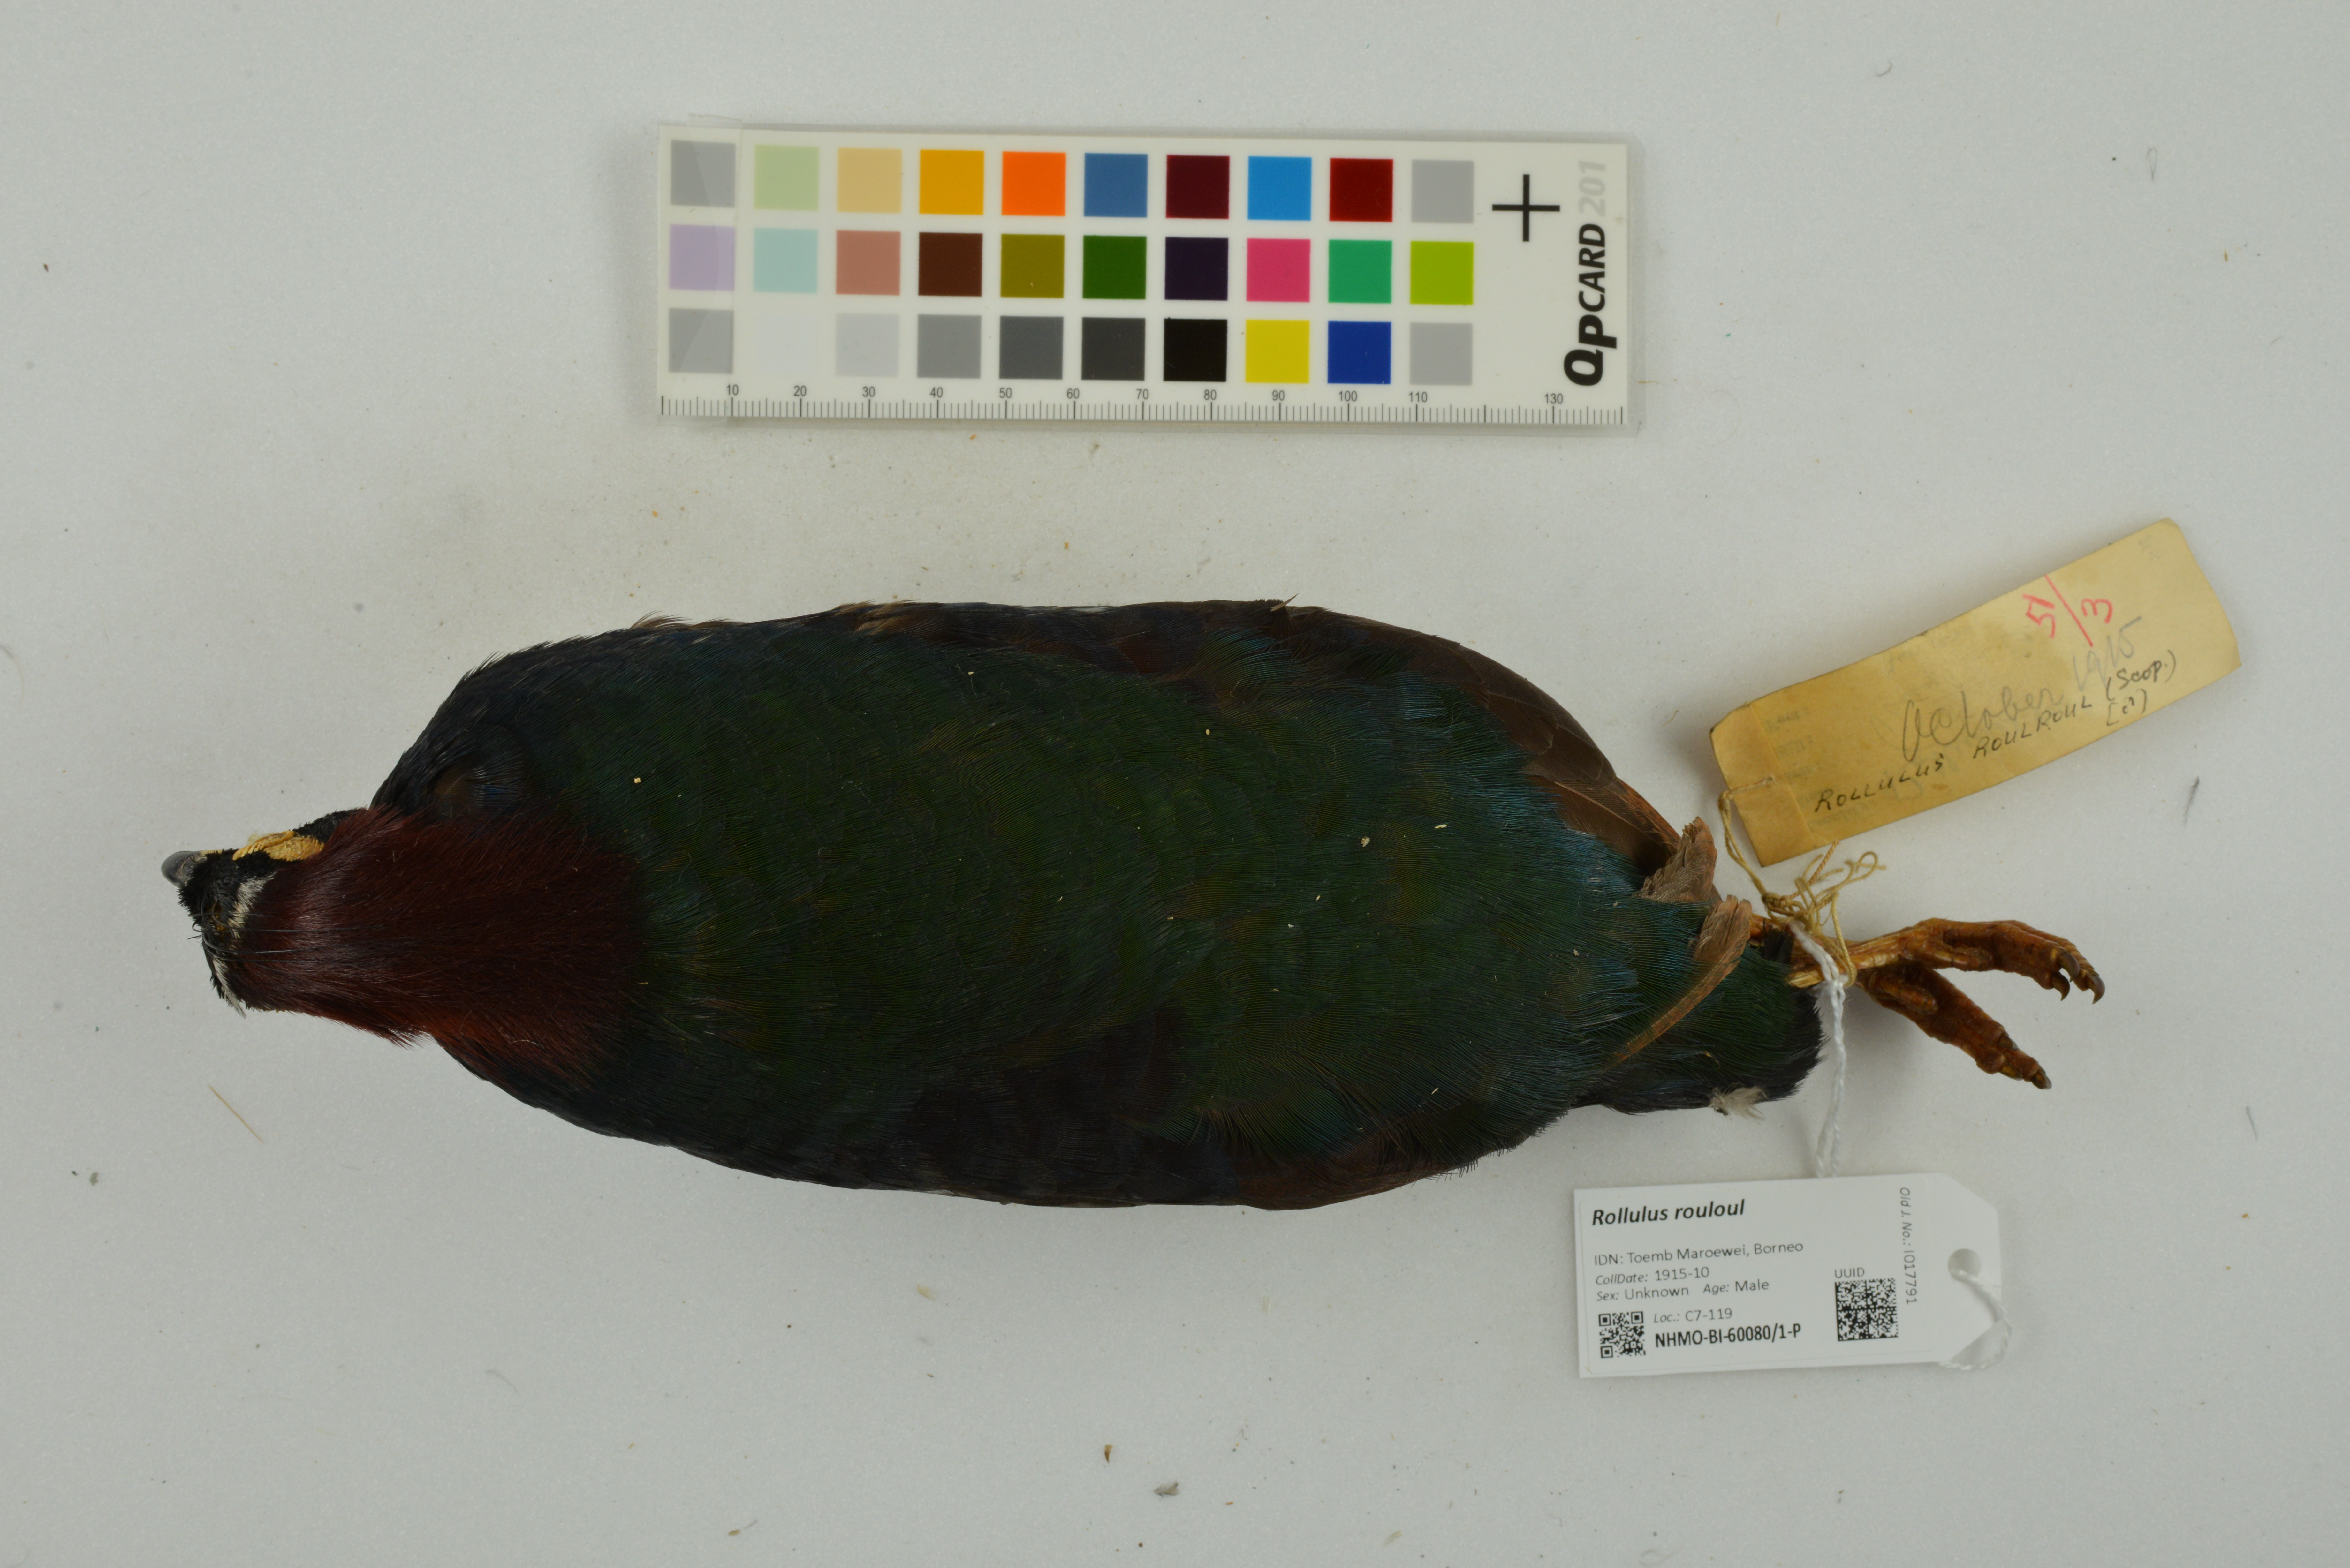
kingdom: Animalia
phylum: Chordata
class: Aves
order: Galliformes
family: Phasianidae
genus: Rollulus
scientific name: Rollulus rouloul
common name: Crested partridge
